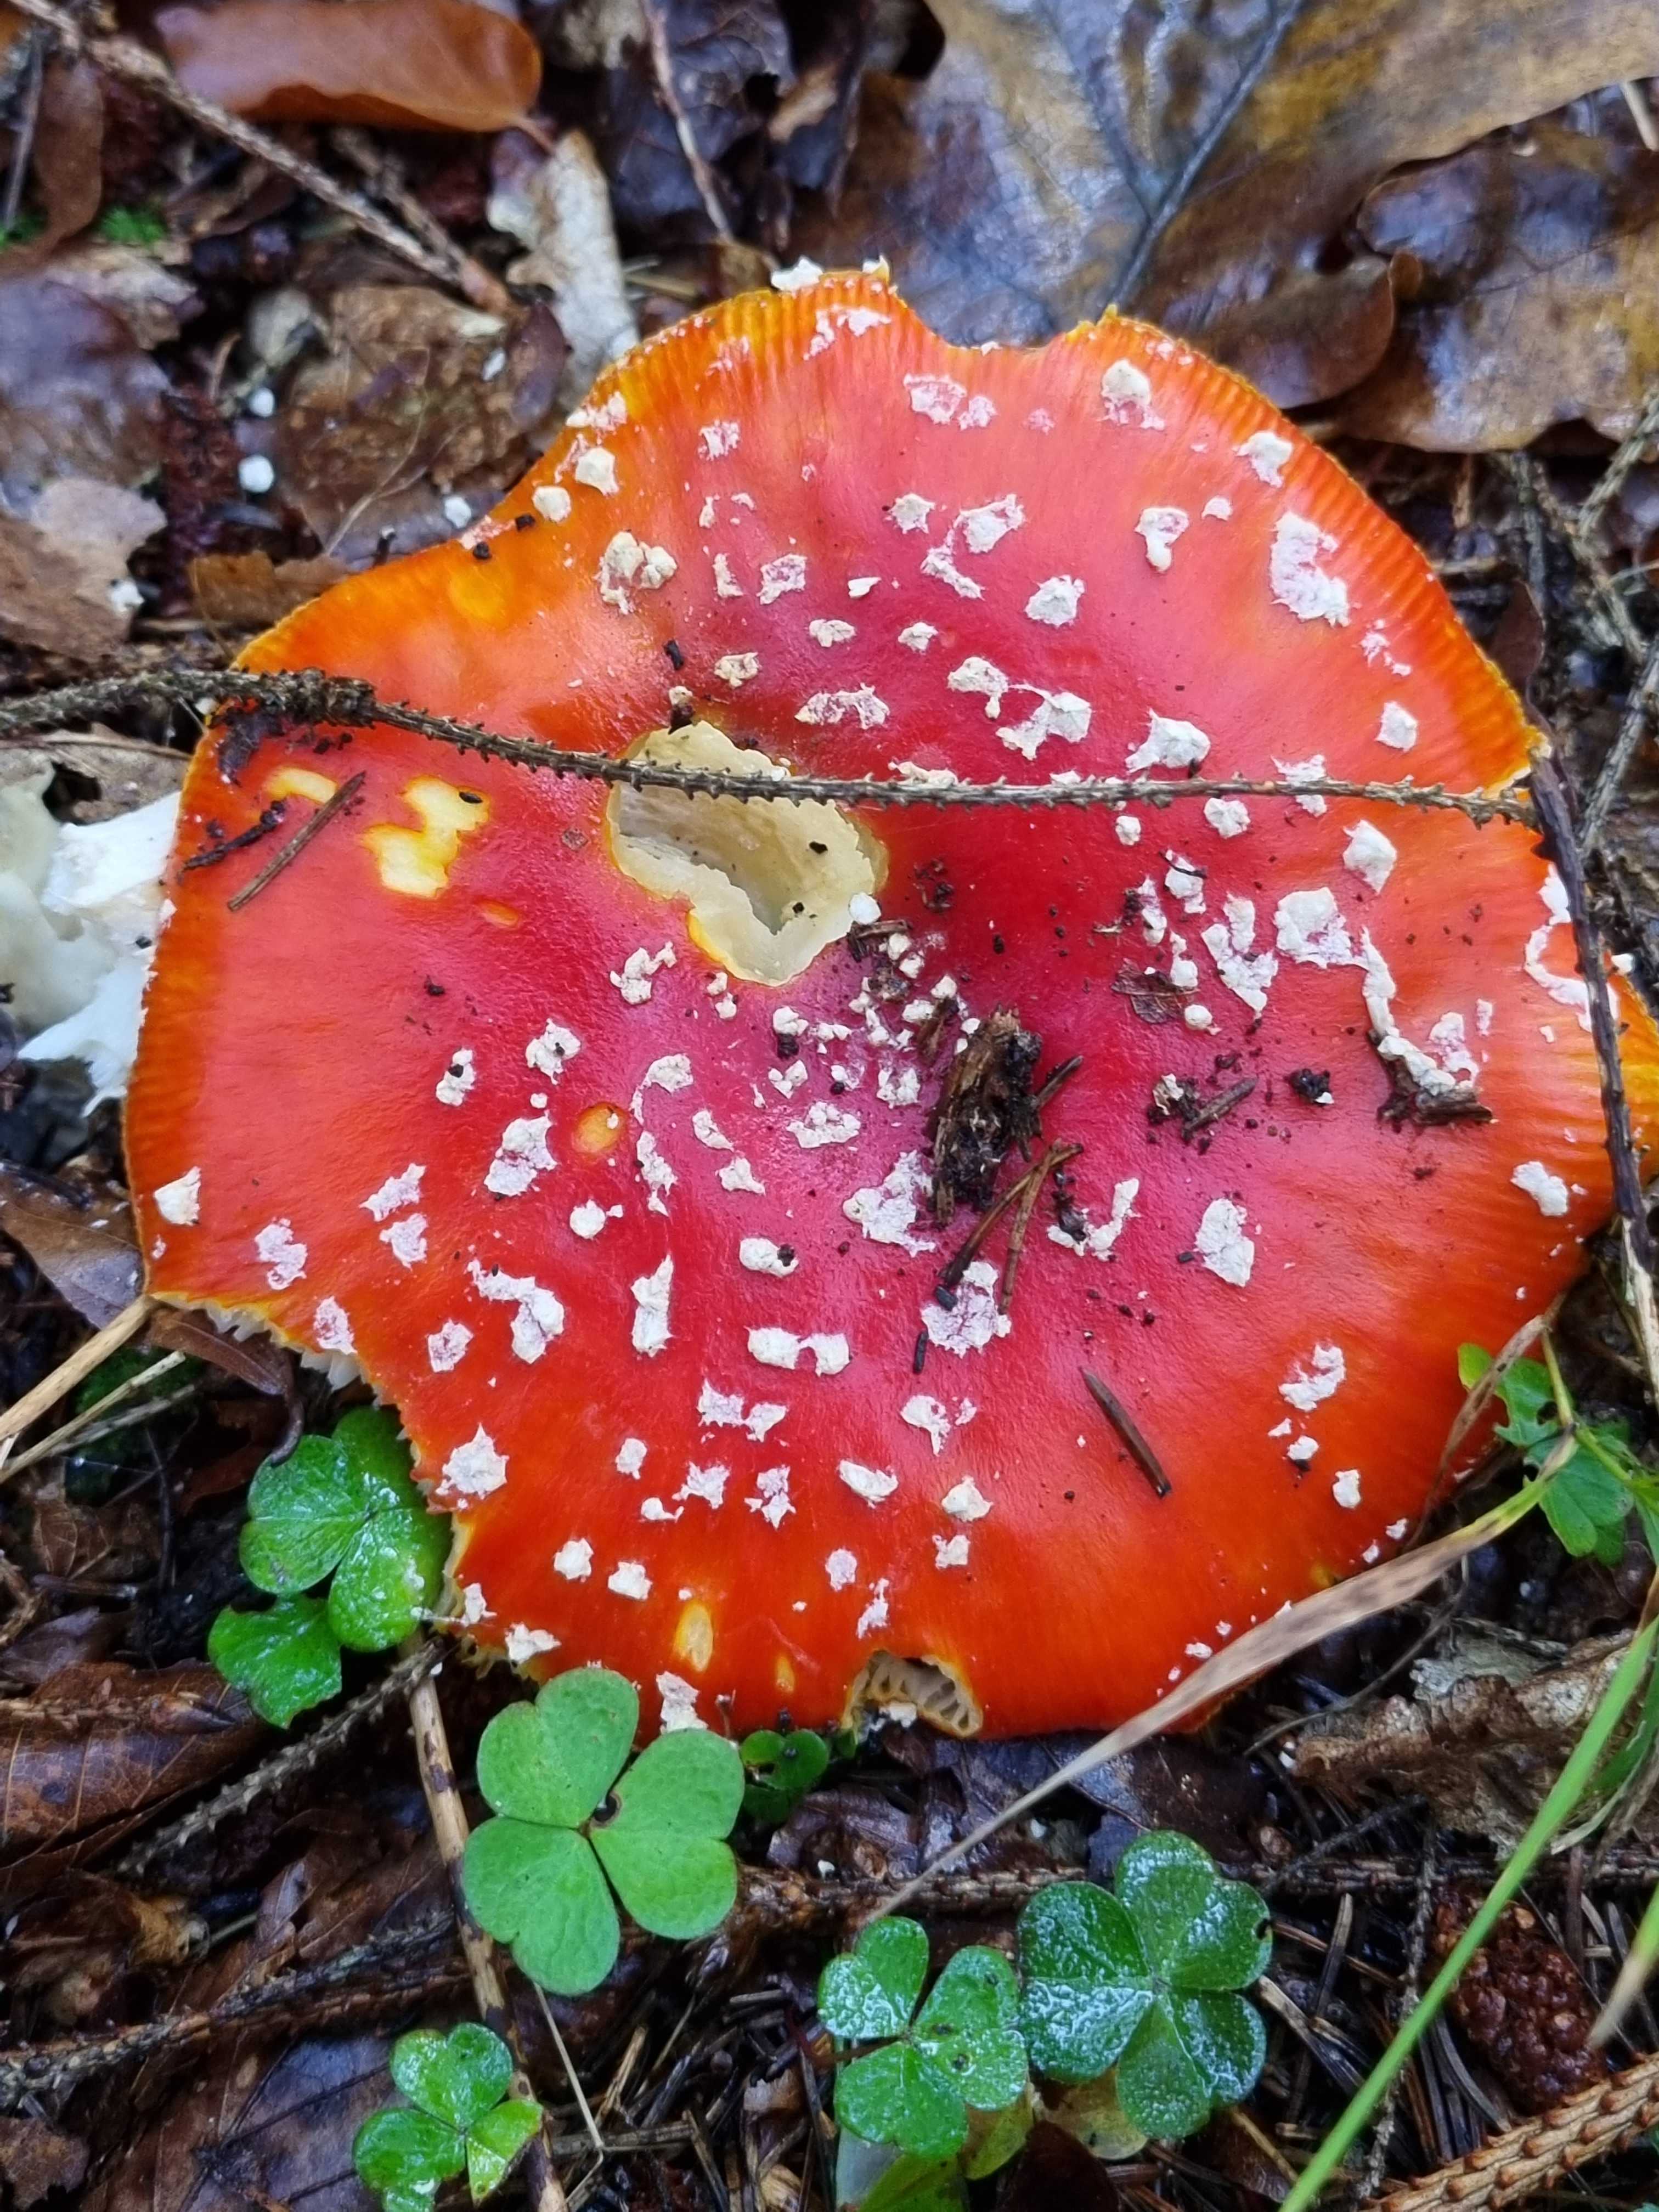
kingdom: Fungi
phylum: Basidiomycota
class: Agaricomycetes
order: Agaricales
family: Amanitaceae
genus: Amanita
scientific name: Amanita muscaria
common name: rød fluesvamp
